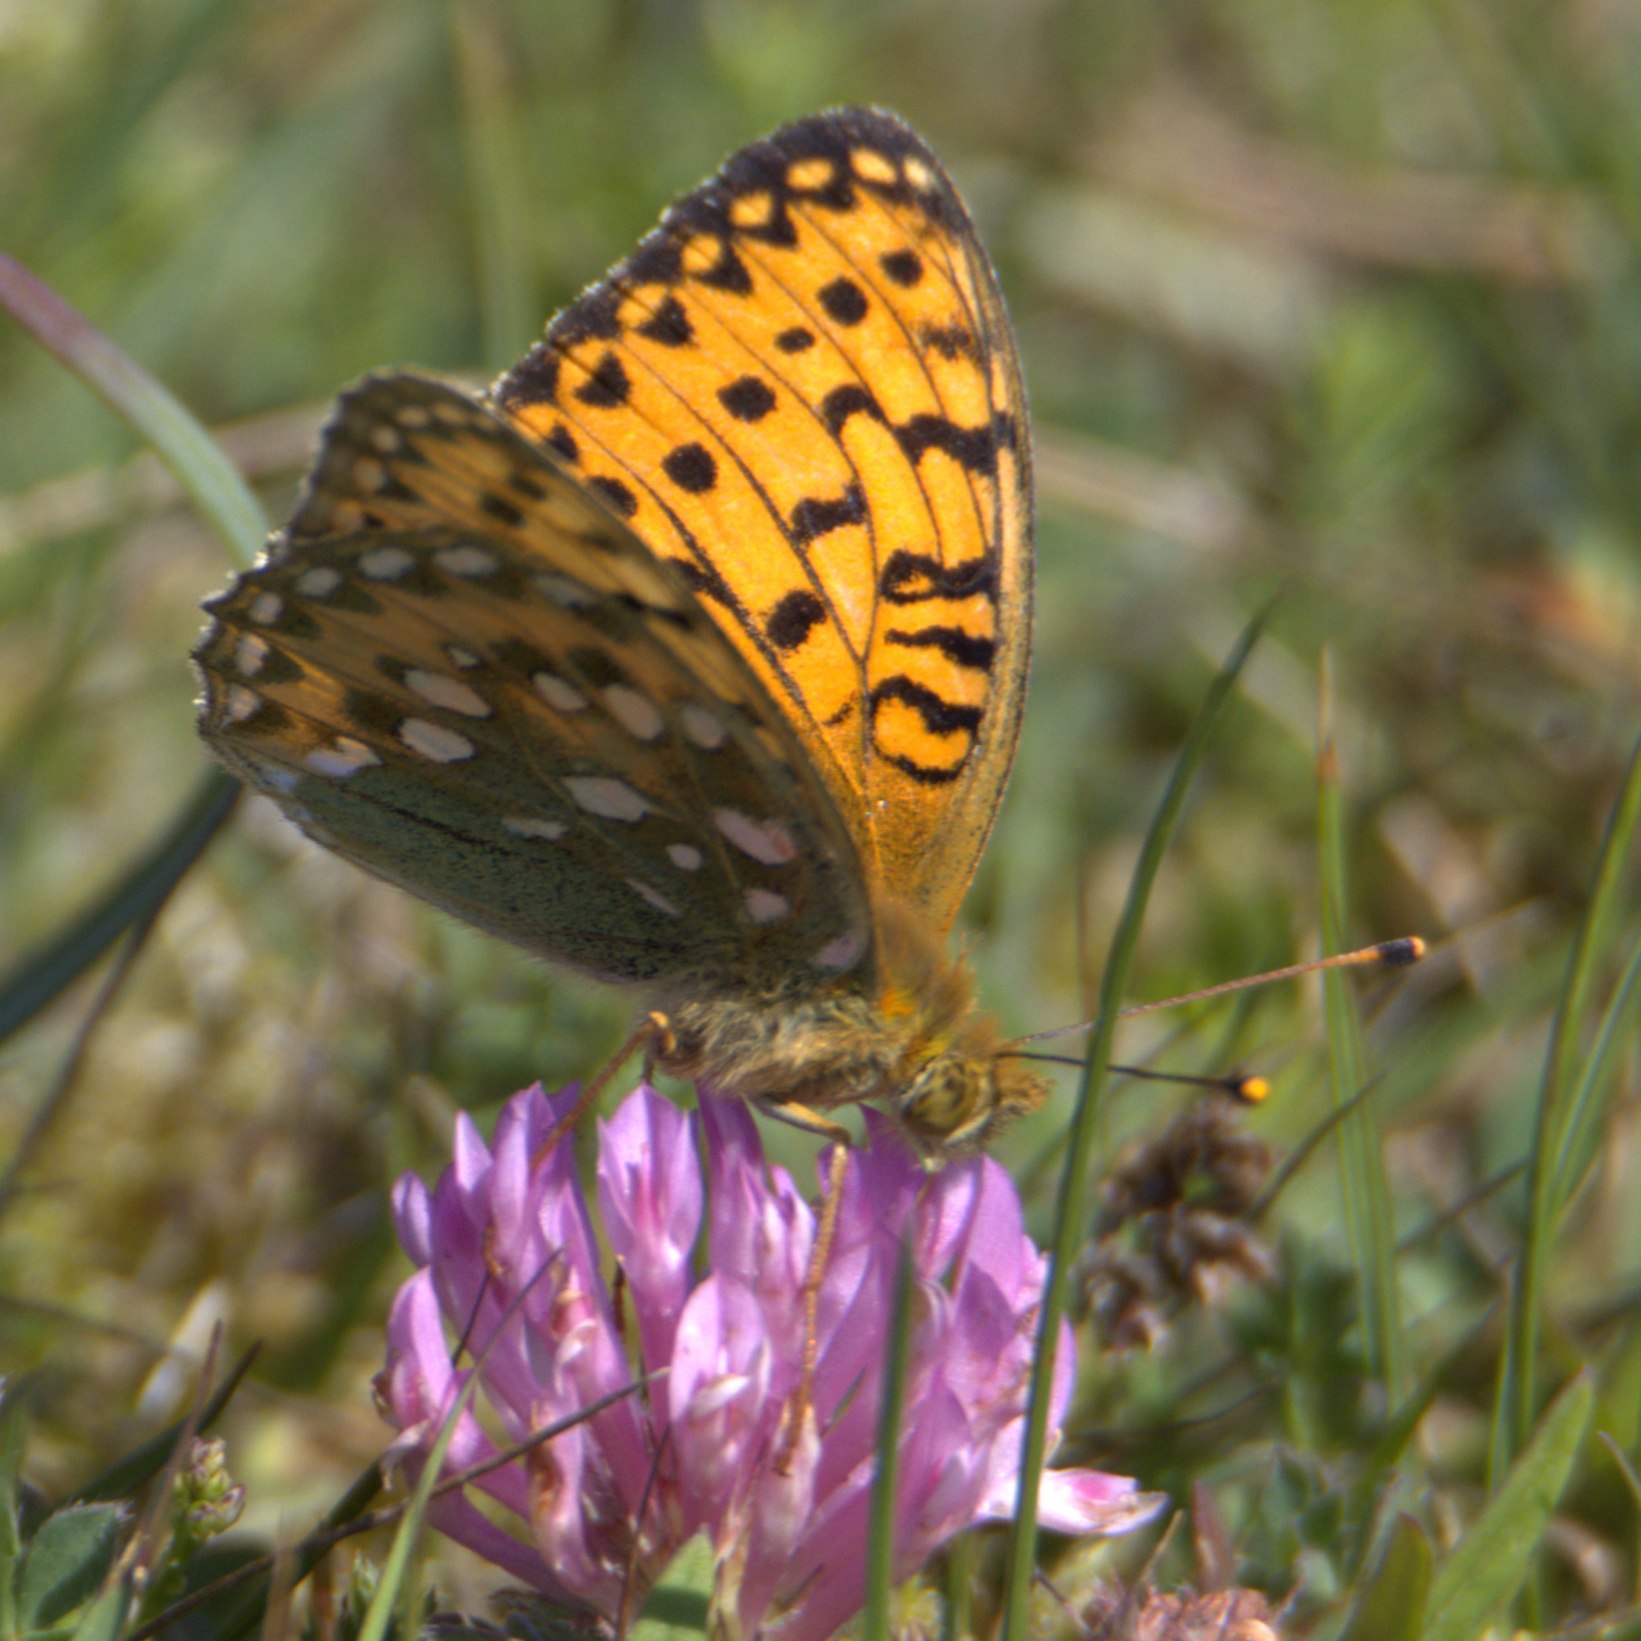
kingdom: Animalia
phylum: Arthropoda
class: Insecta
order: Lepidoptera
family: Nymphalidae
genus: Speyeria
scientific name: Speyeria aglaja
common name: Markperlemorsommerfugl
